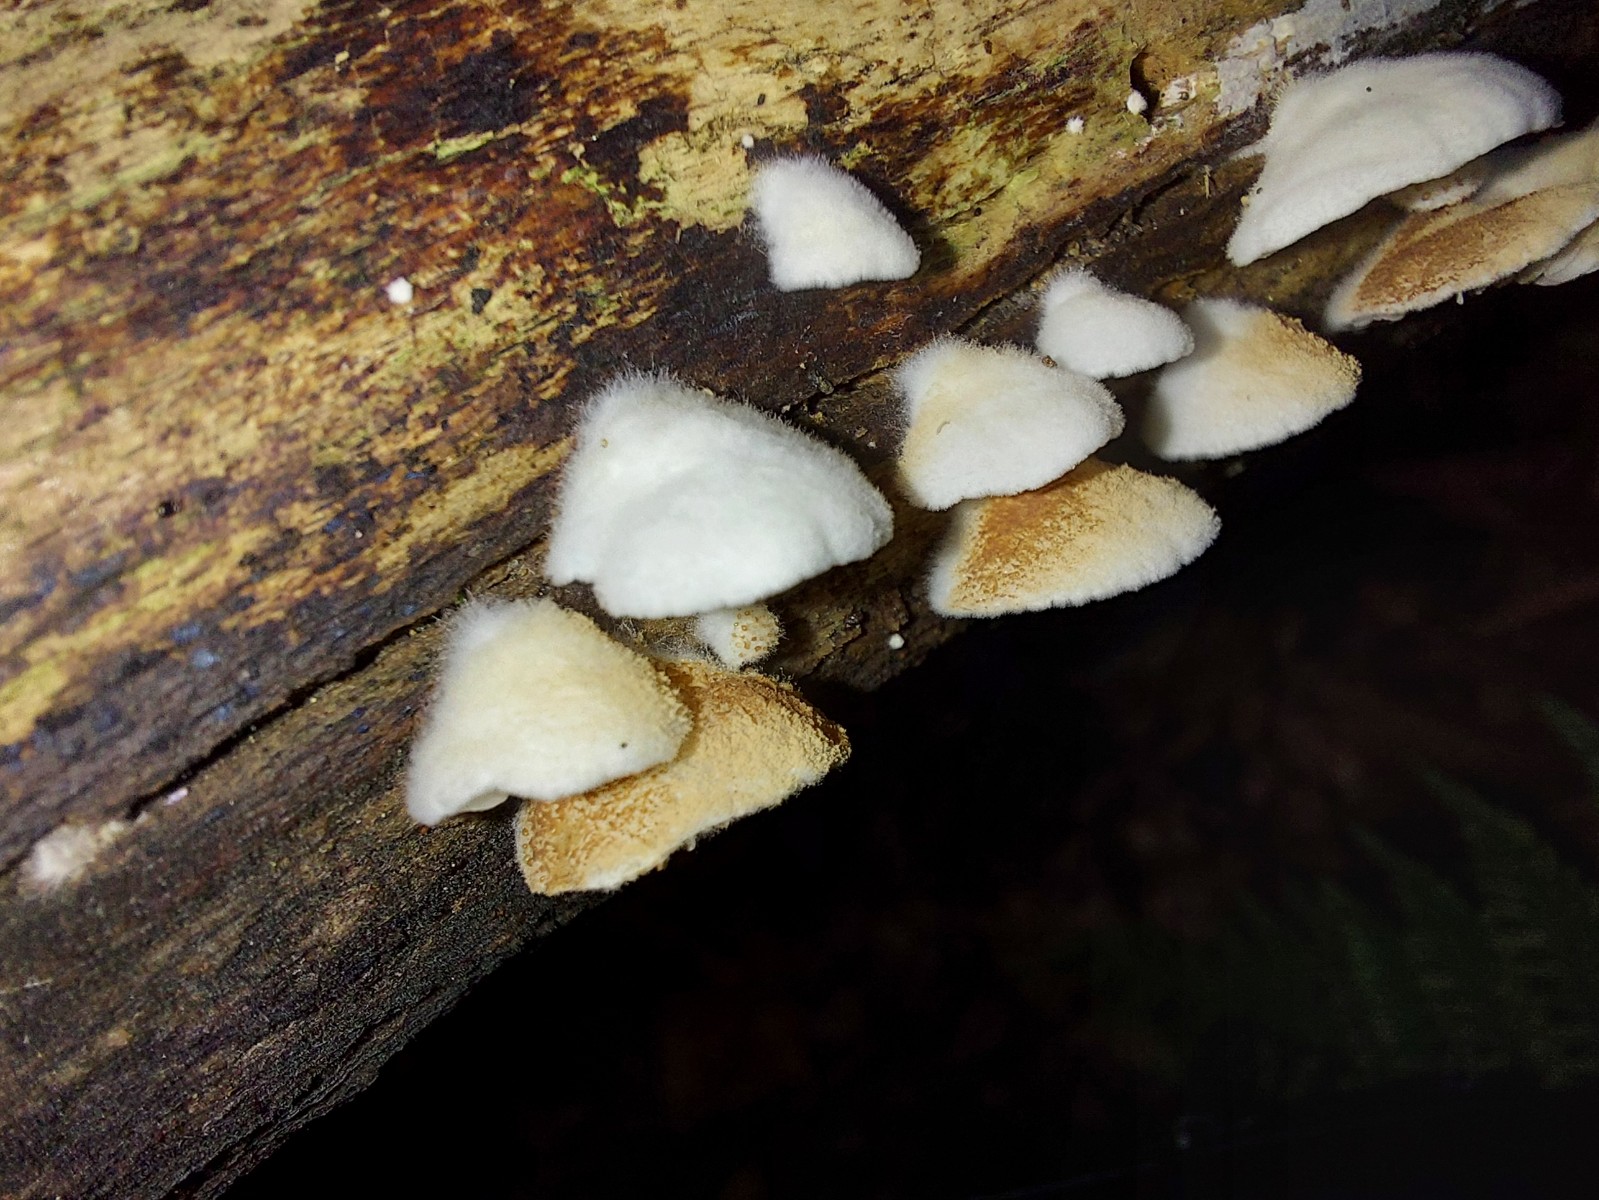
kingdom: Fungi
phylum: Basidiomycota
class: Agaricomycetes
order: Agaricales
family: Crepidotaceae
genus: Crepidotus
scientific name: Crepidotus
